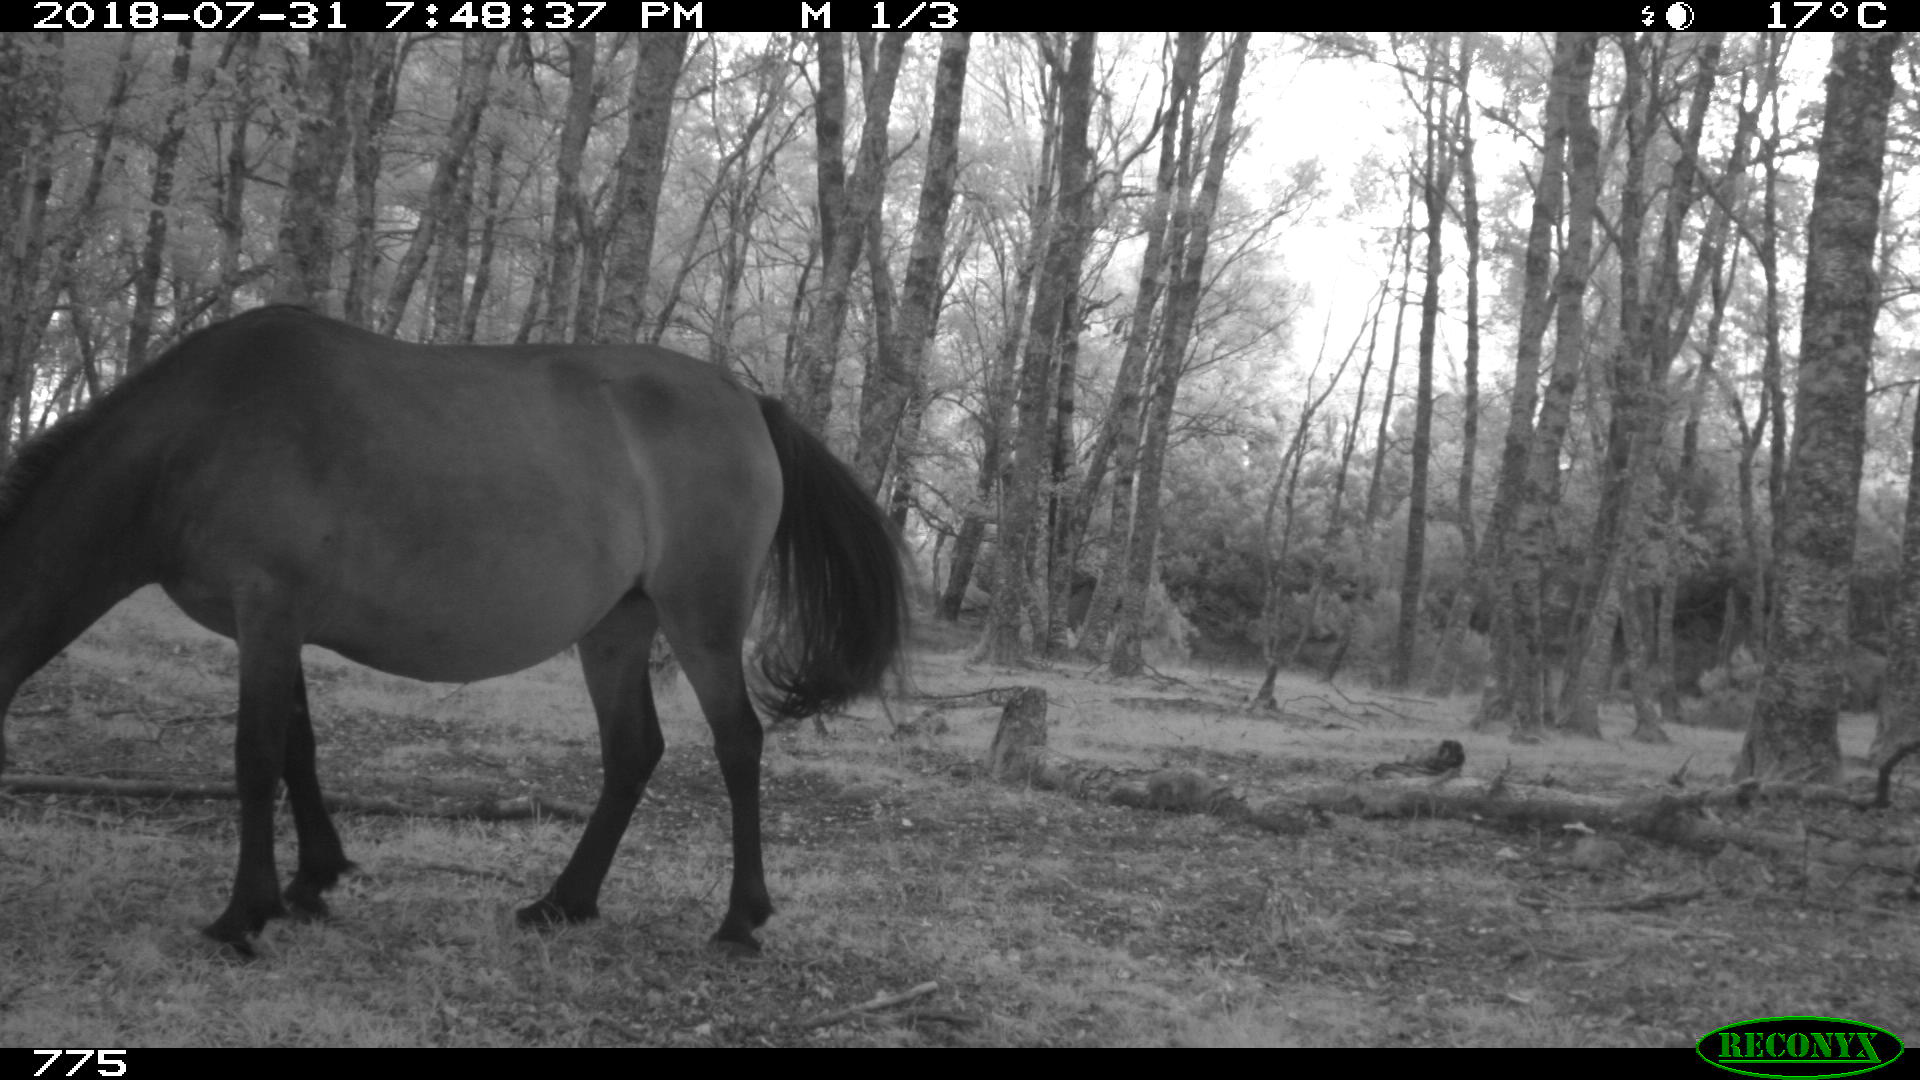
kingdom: Animalia
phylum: Chordata
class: Mammalia
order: Perissodactyla
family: Equidae
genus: Equus
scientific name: Equus caballus
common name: Horse
